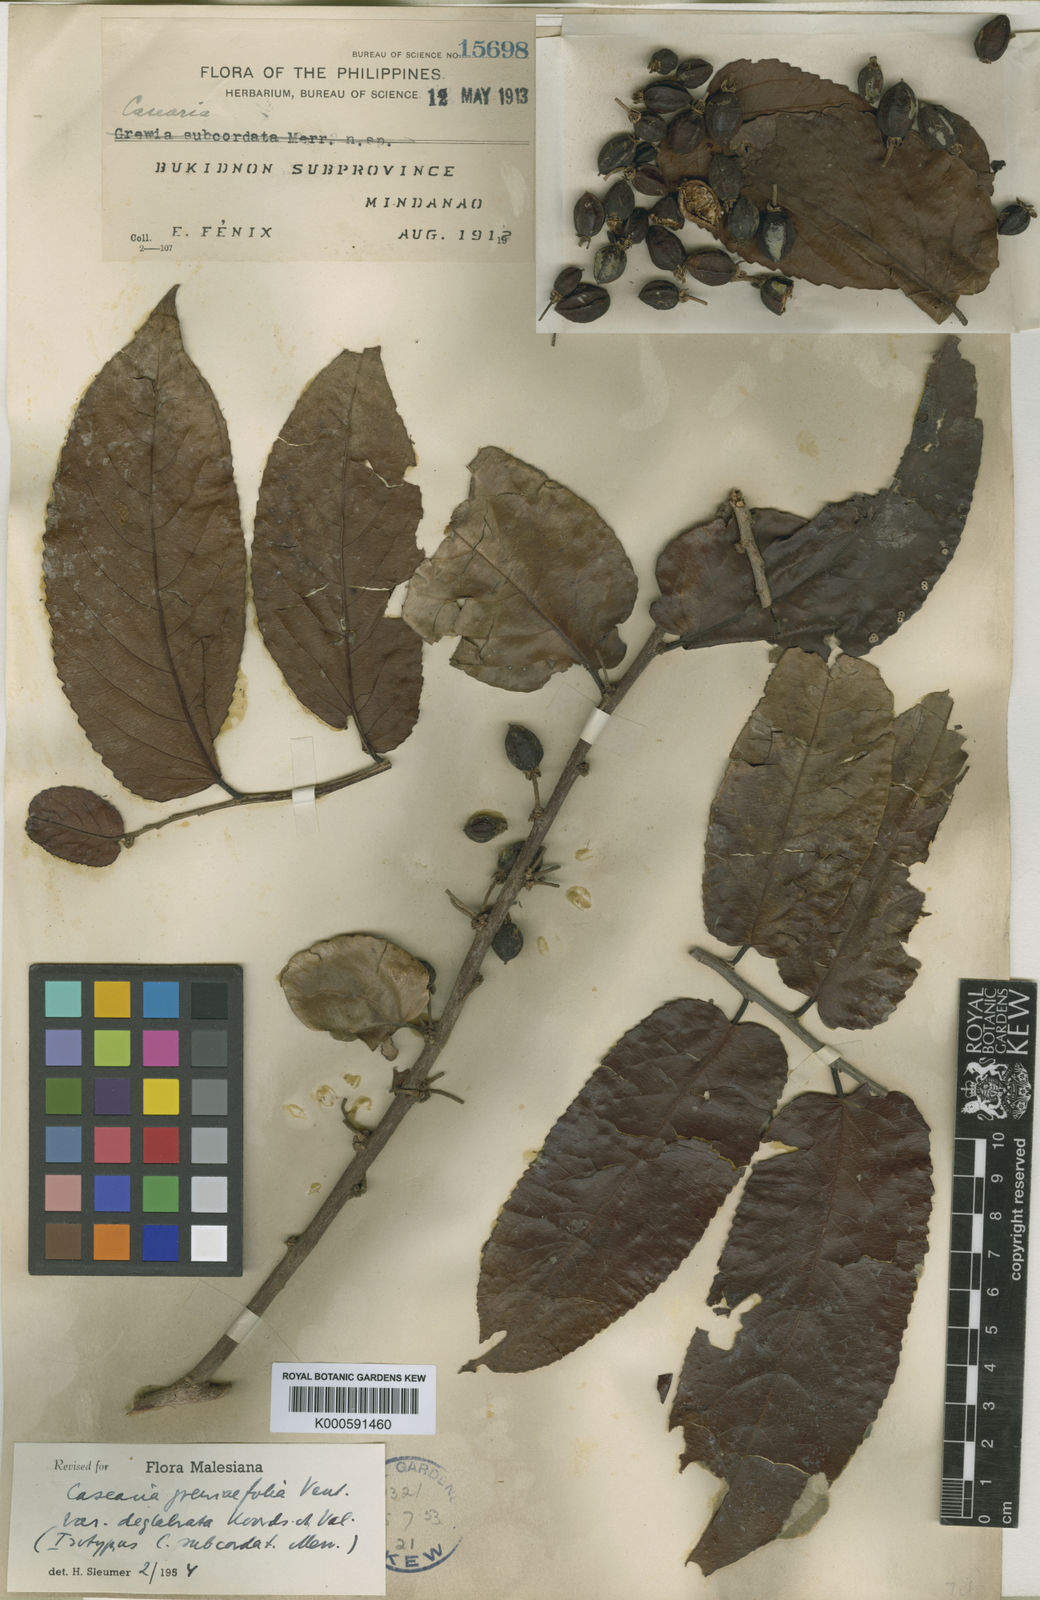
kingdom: Plantae
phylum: Tracheophyta
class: Magnoliopsida
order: Malpighiales
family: Salicaceae
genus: Casearia
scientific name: Casearia grewiifolia
